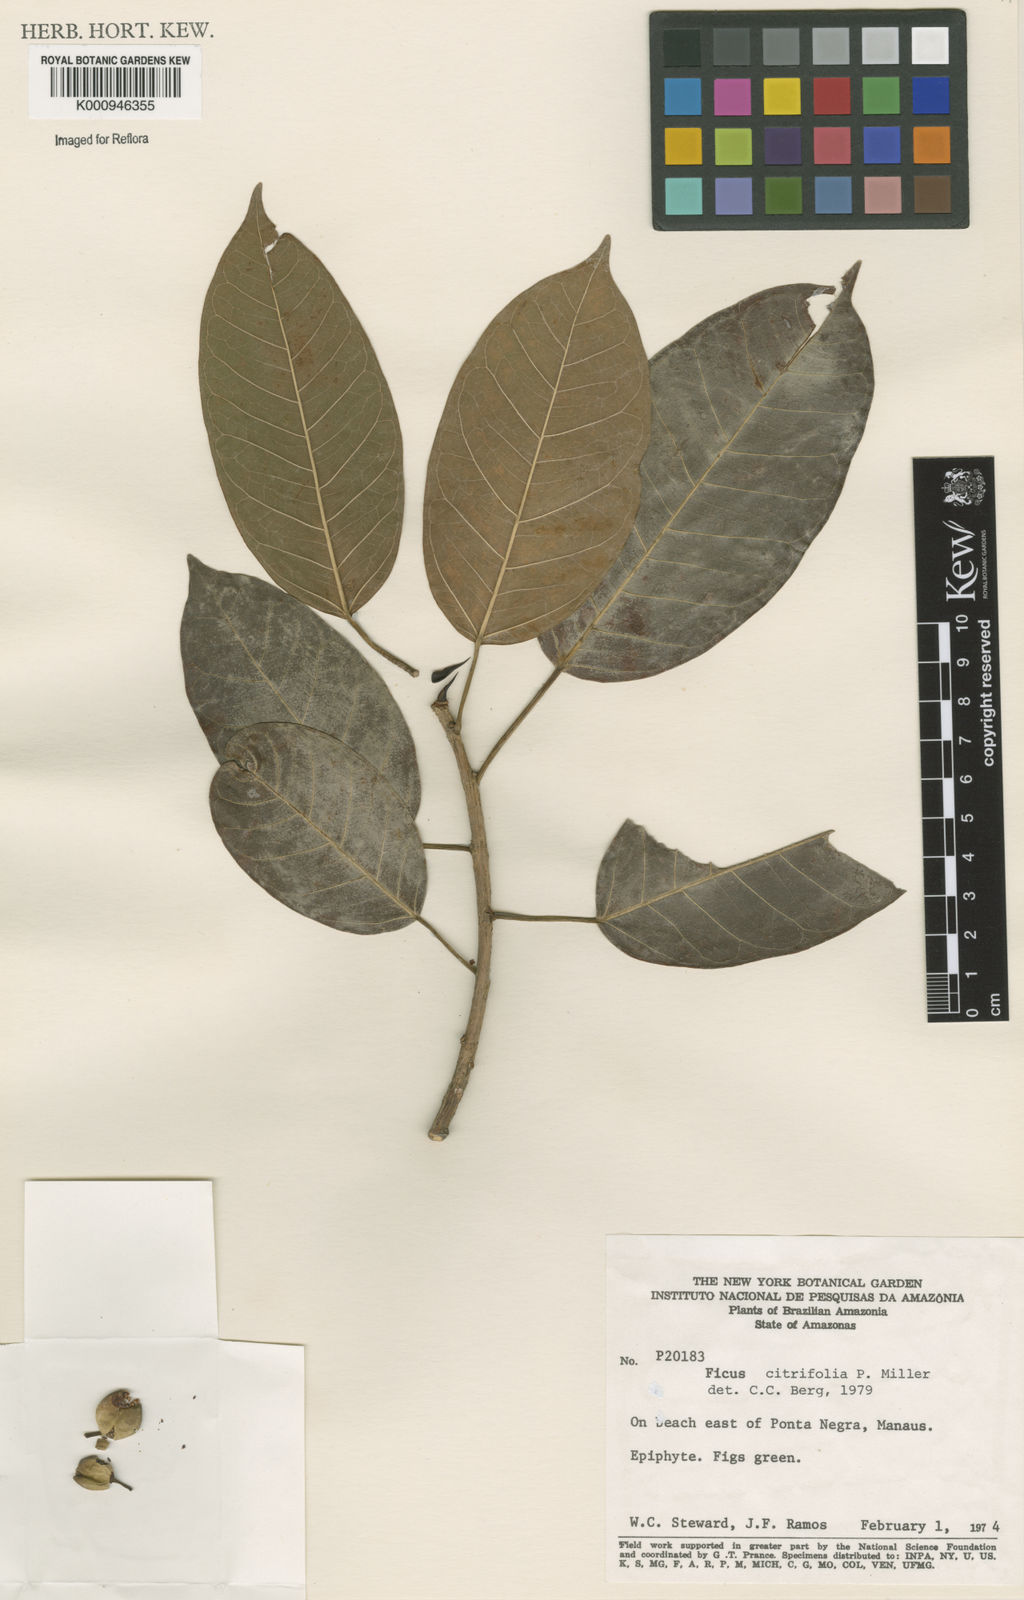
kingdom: Plantae
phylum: Tracheophyta
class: Magnoliopsida
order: Rosales
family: Moraceae
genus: Ficus
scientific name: Ficus citrifolia
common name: Strangler fig
